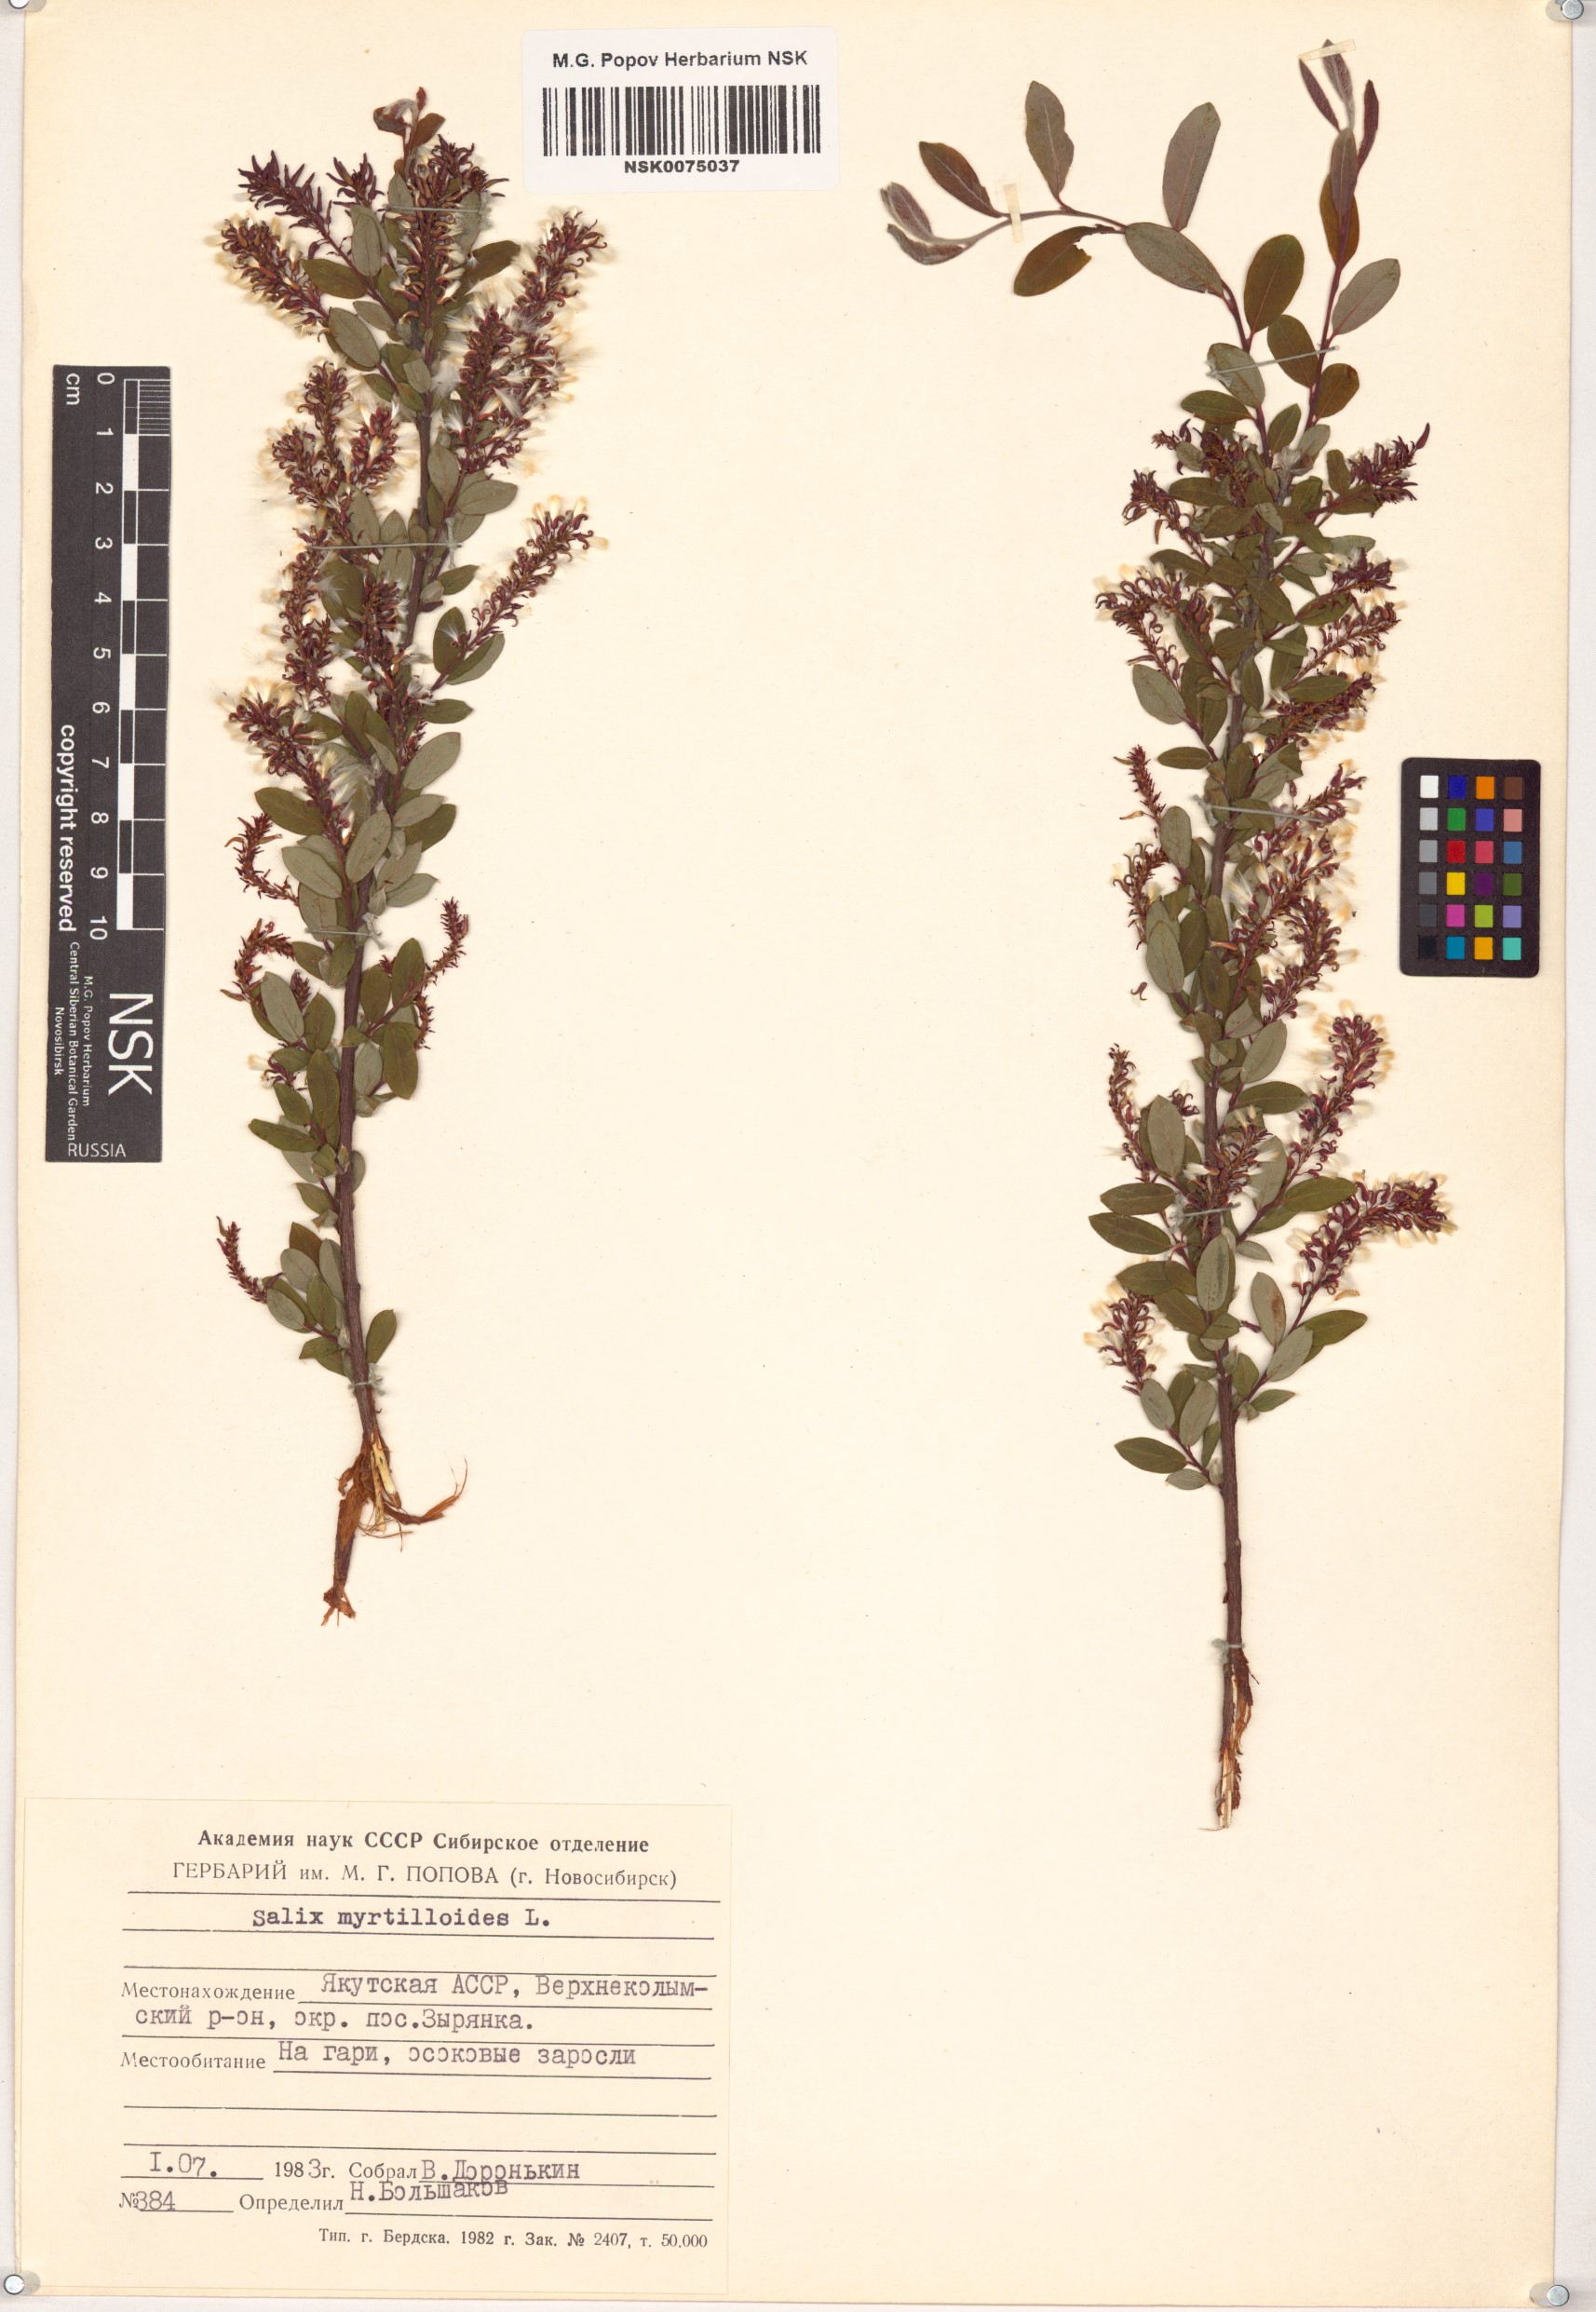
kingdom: Plantae
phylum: Tracheophyta
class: Magnoliopsida
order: Malpighiales
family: Salicaceae
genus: Salix
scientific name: Salix myrtilloides
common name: Myrtle-leaved willow
